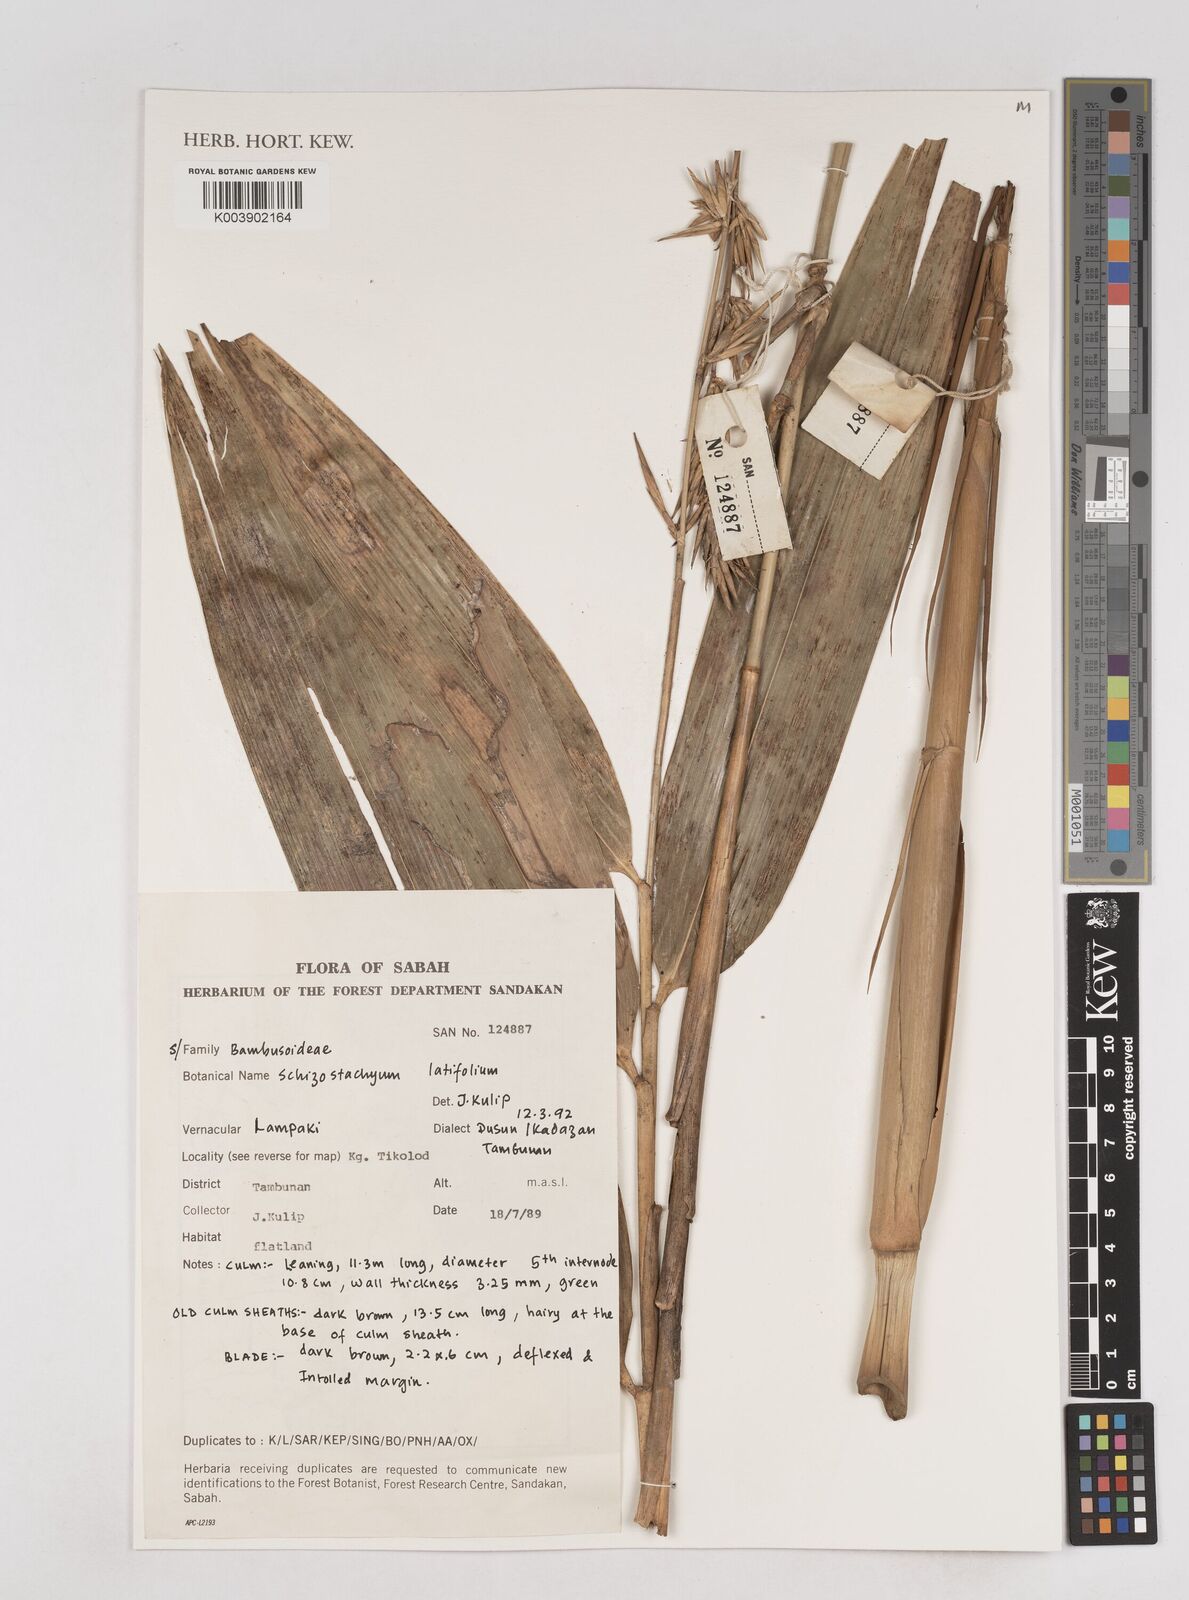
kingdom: Plantae
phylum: Tracheophyta
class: Liliopsida
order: Poales
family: Poaceae
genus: Schizostachyum
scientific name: Schizostachyum latifolium
